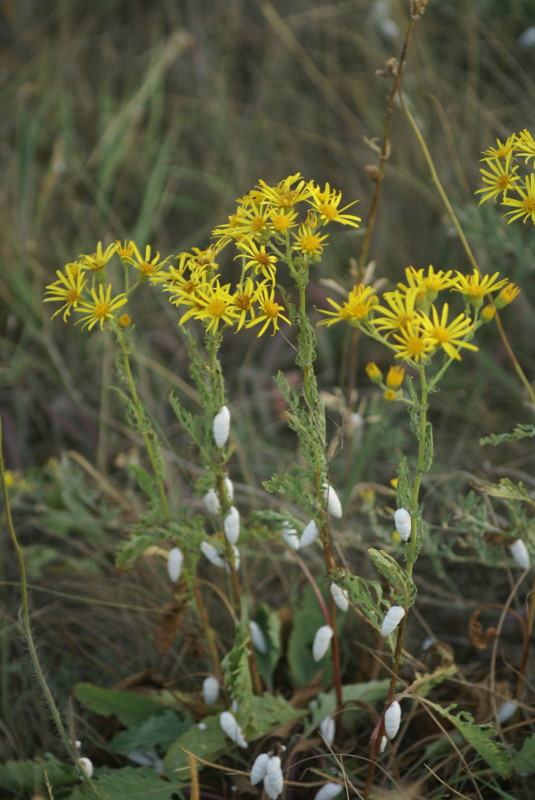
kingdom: Plantae
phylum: Tracheophyta
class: Magnoliopsida
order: Asterales
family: Asteraceae
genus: Jacobaea
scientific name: Jacobaea vulgaris
